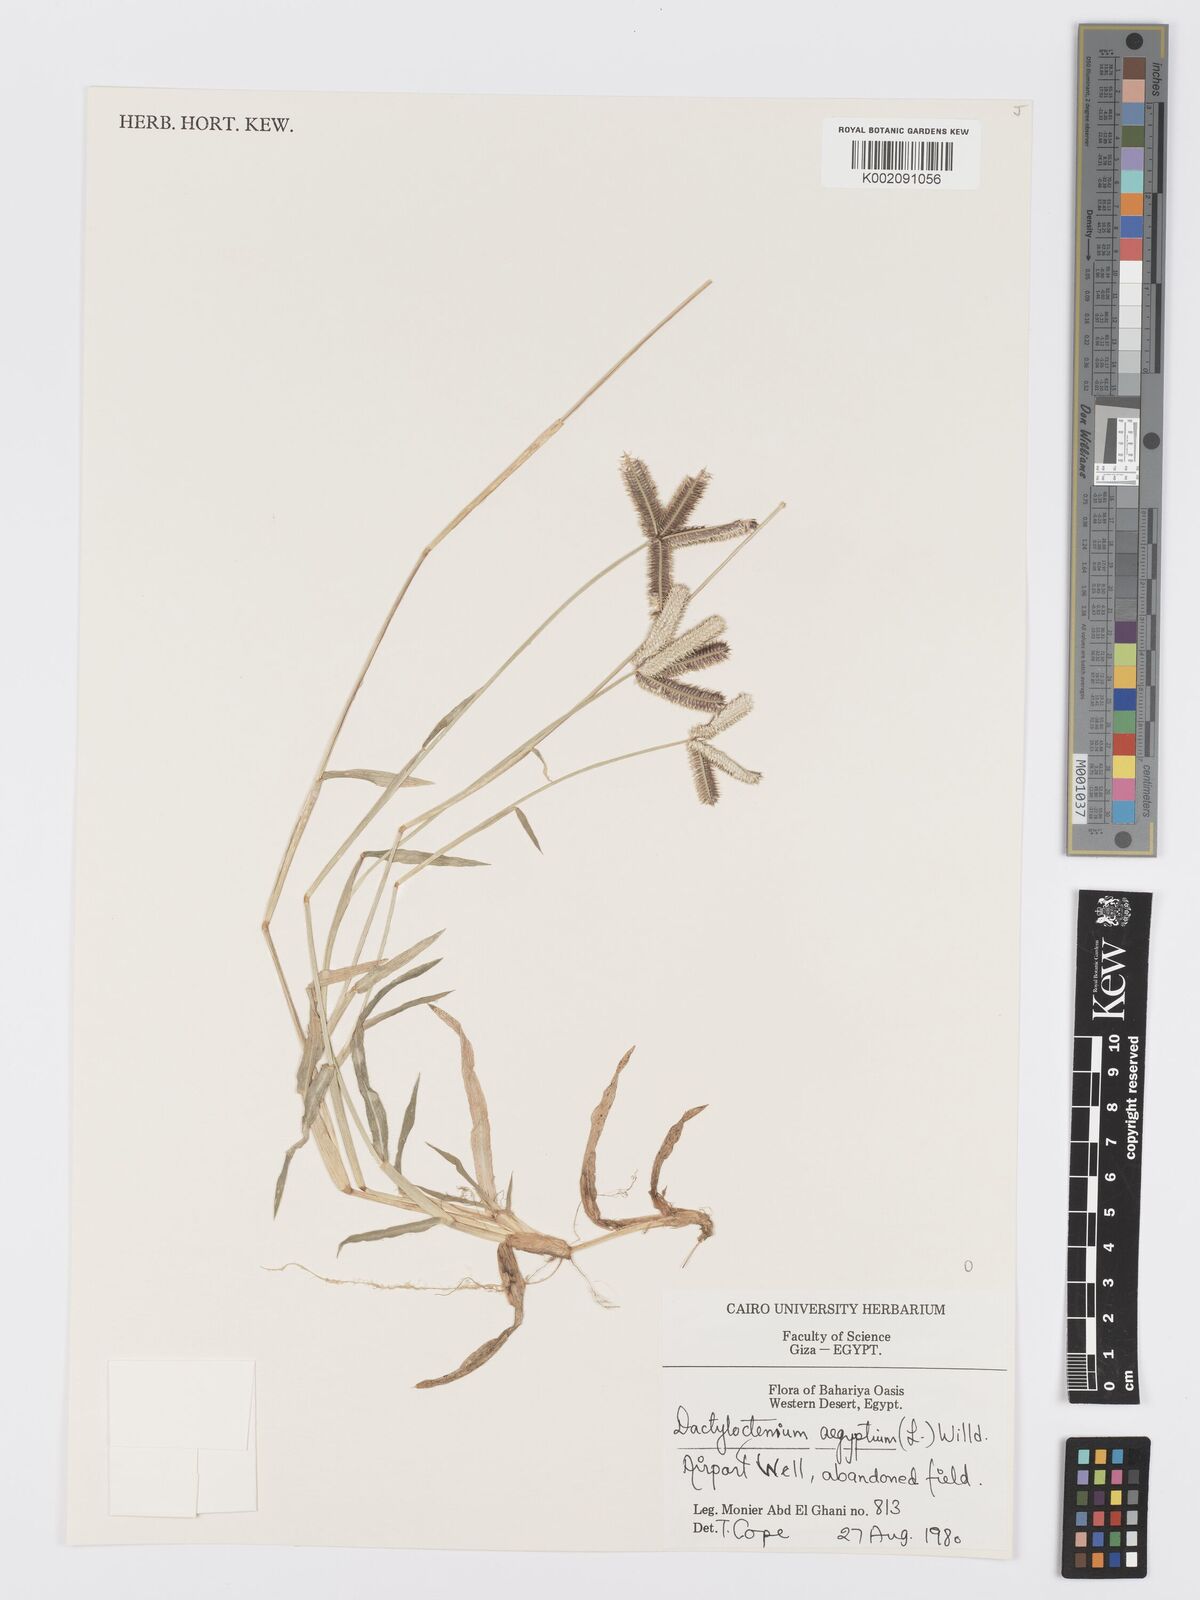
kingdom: Plantae
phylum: Tracheophyta
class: Liliopsida
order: Poales
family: Poaceae
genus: Dactyloctenium
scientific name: Dactyloctenium aegyptium
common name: Egyptian grass
